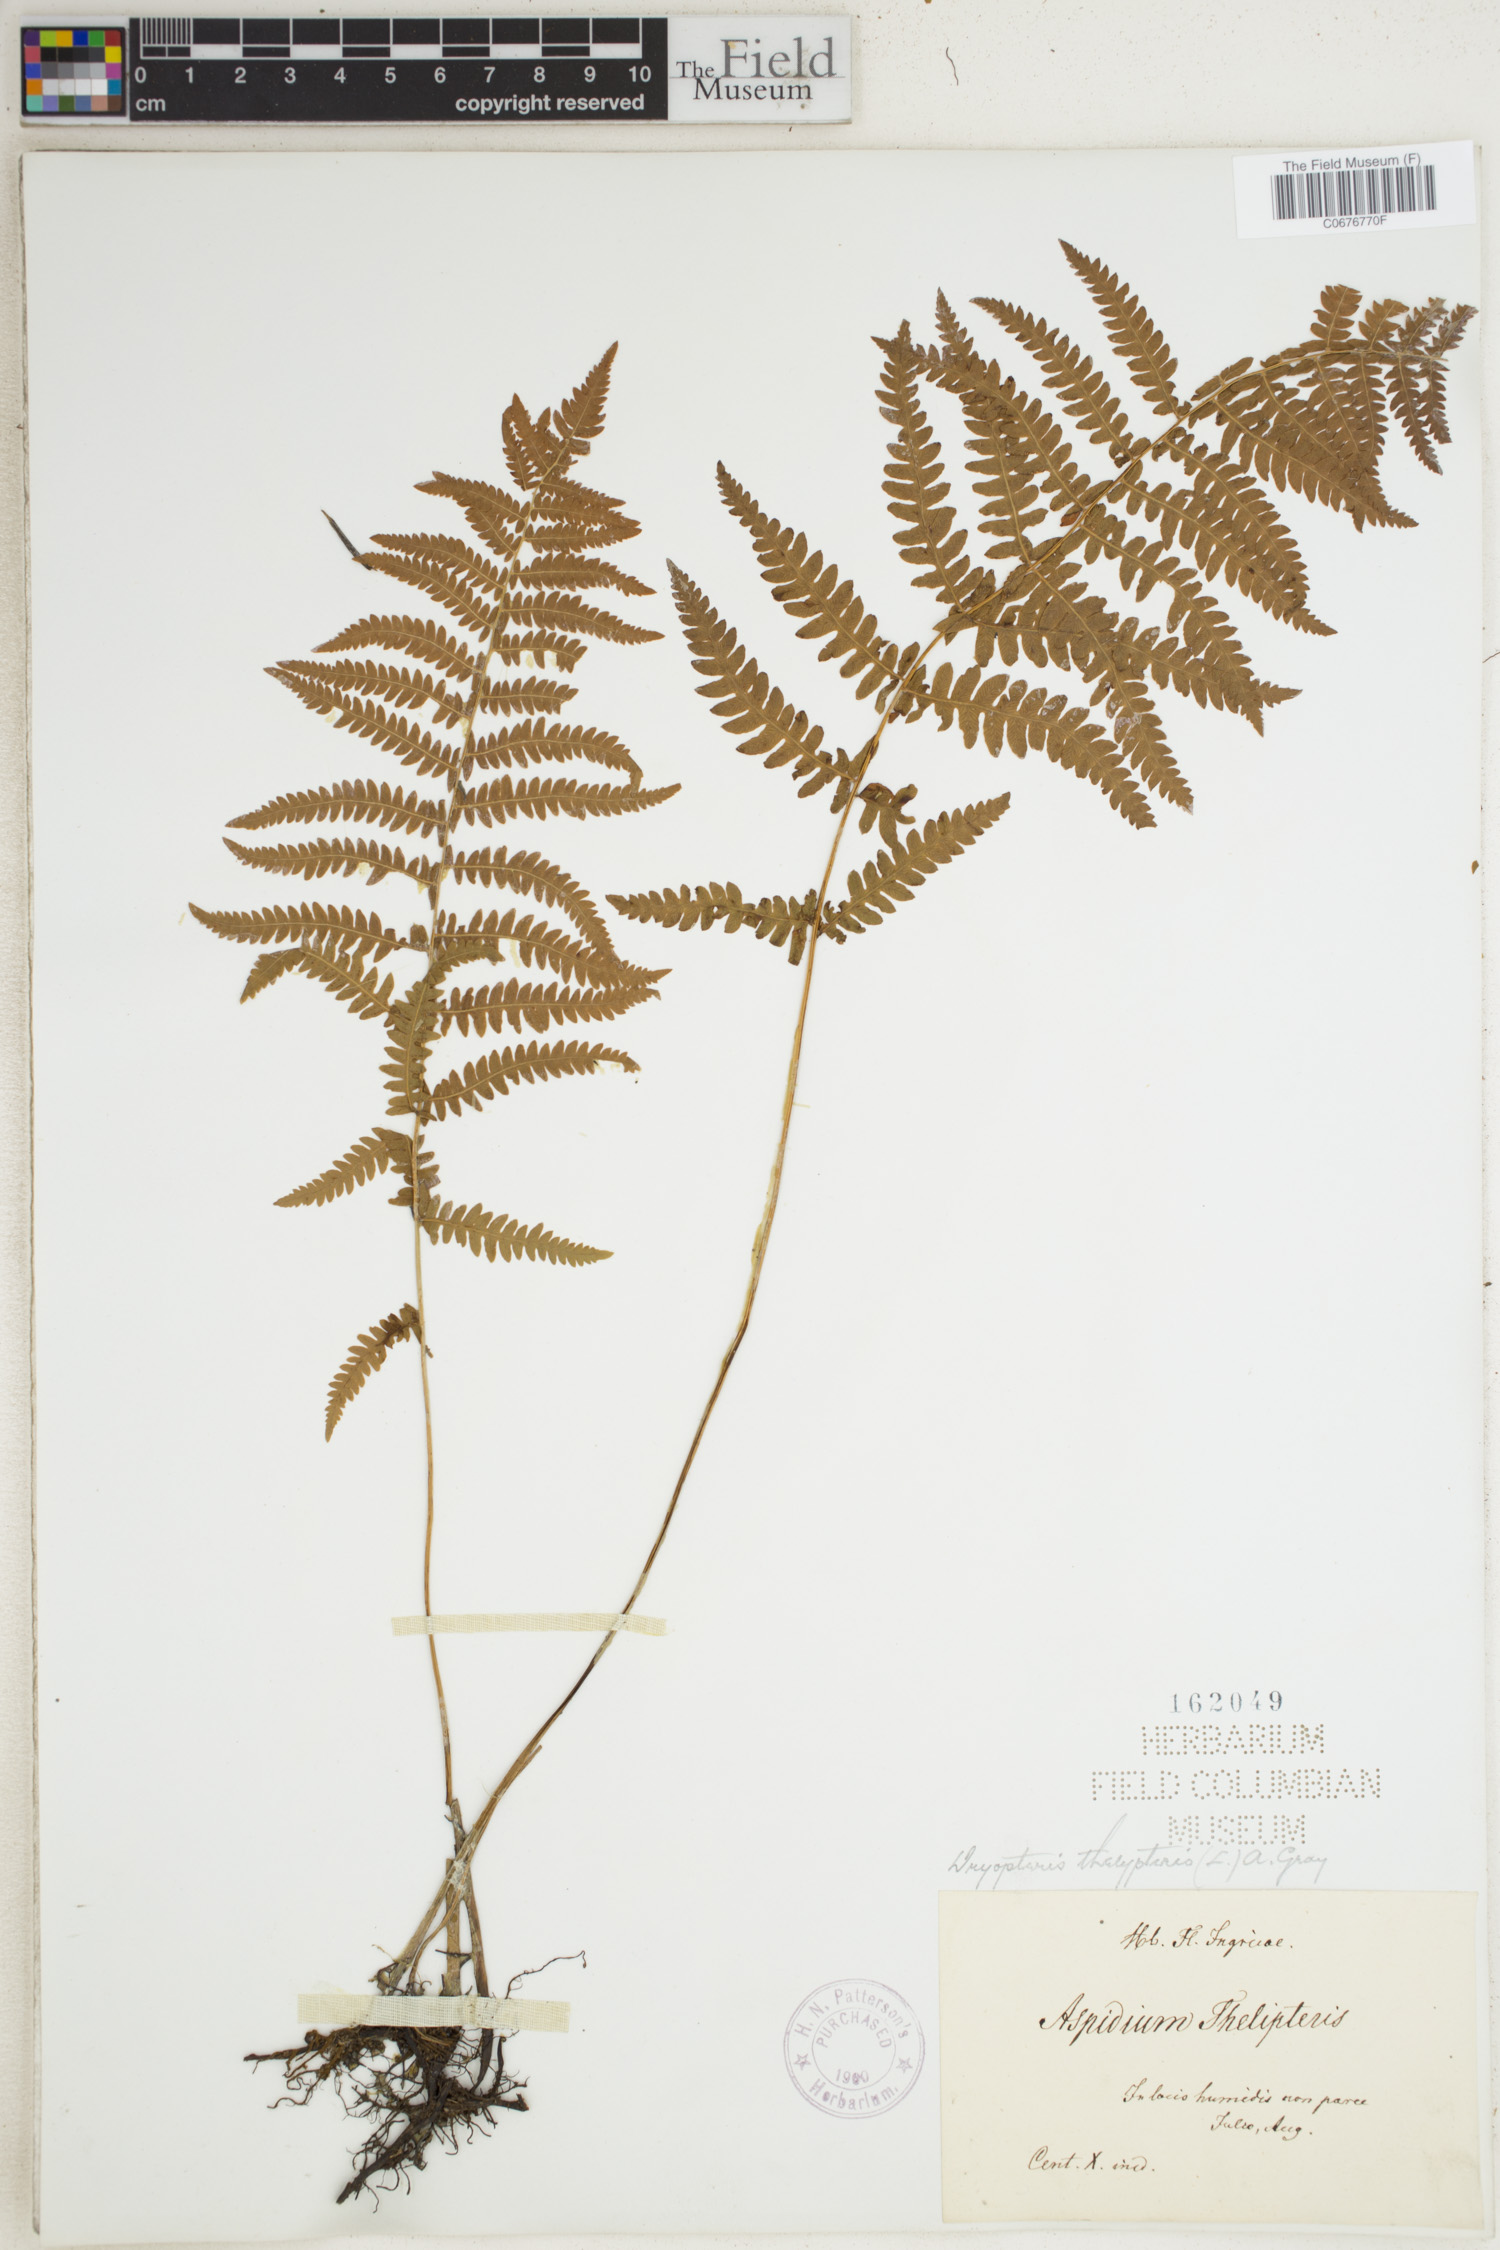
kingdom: Plantae
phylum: Tracheophyta
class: Polypodiopsida
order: Polypodiales
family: Thelypteridaceae
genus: Thelypteris
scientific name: Thelypteris palustris
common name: Marsh fern
